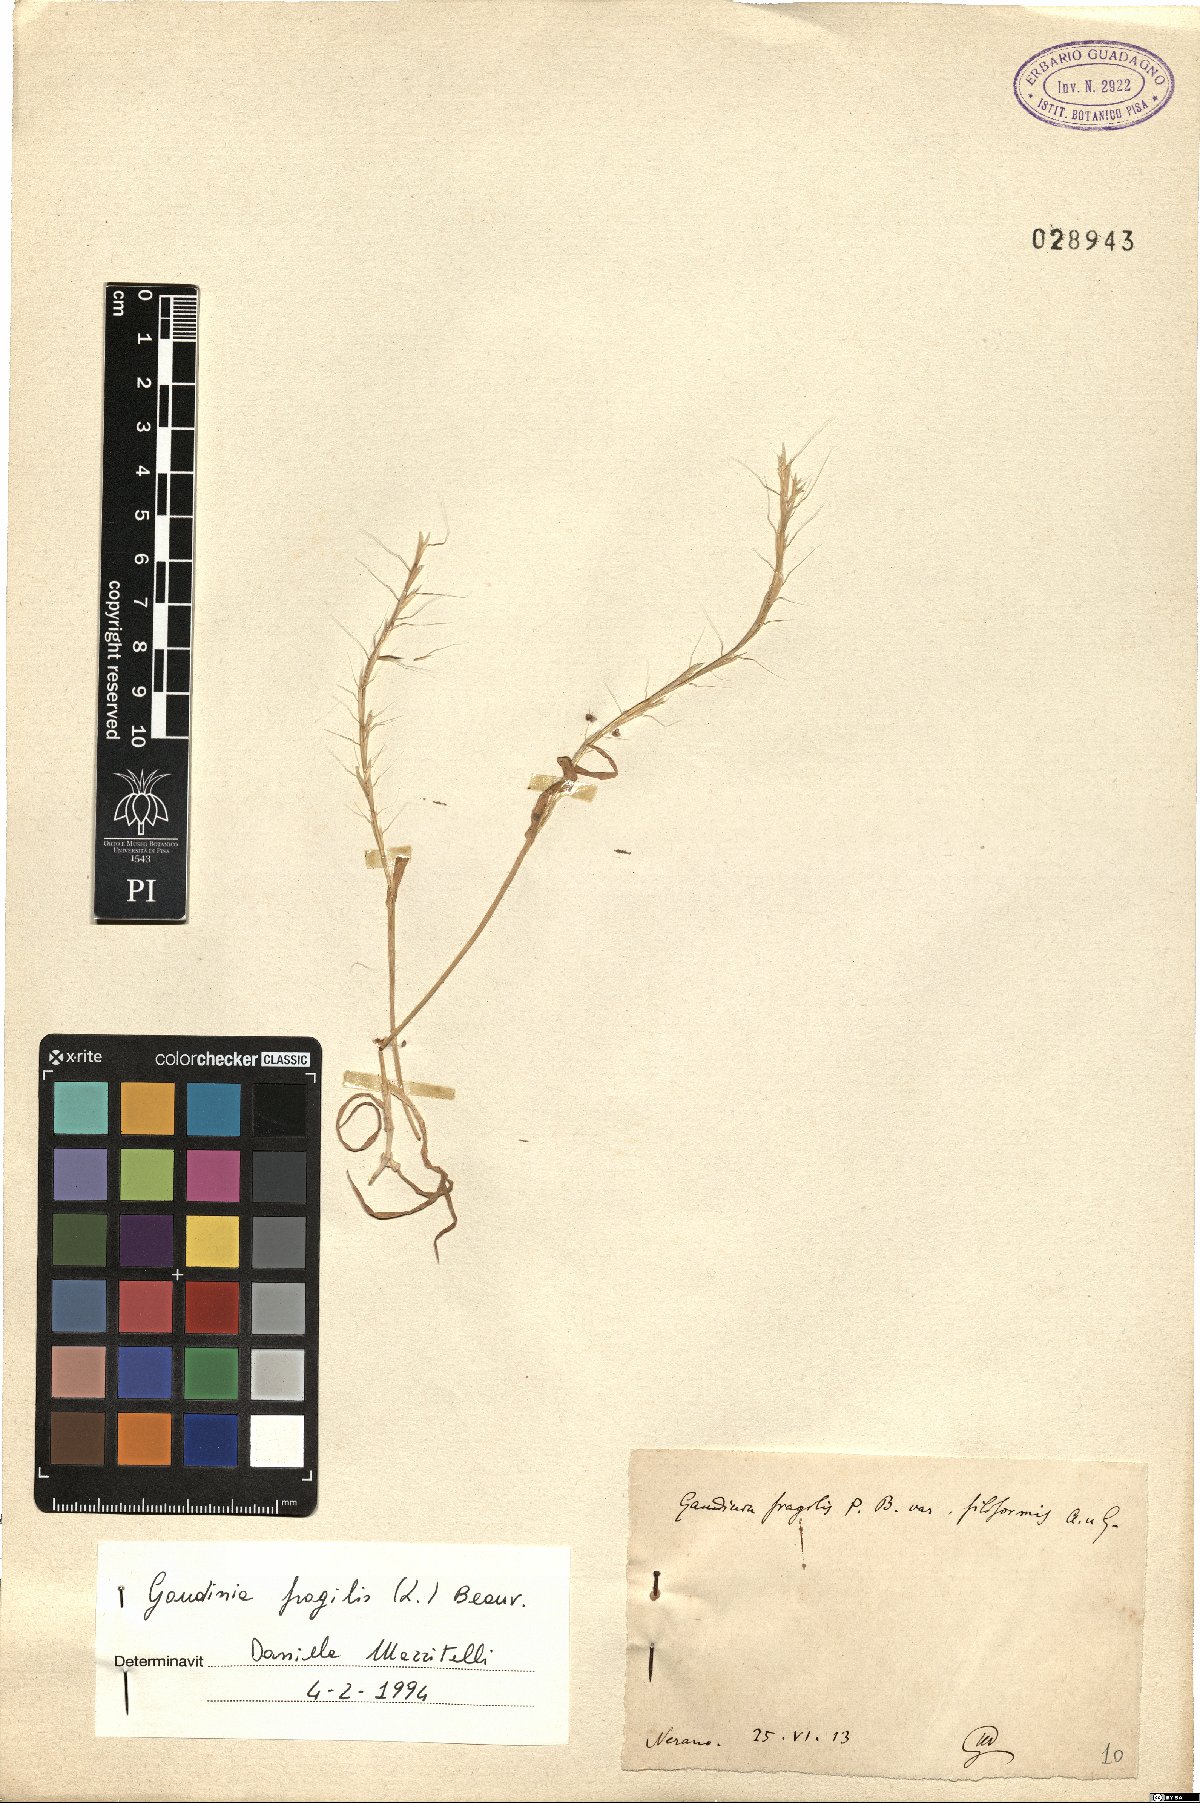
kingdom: Plantae
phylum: Tracheophyta
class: Liliopsida
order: Poales
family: Poaceae
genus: Gaudinia
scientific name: Gaudinia fragilis
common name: French oat-grass
